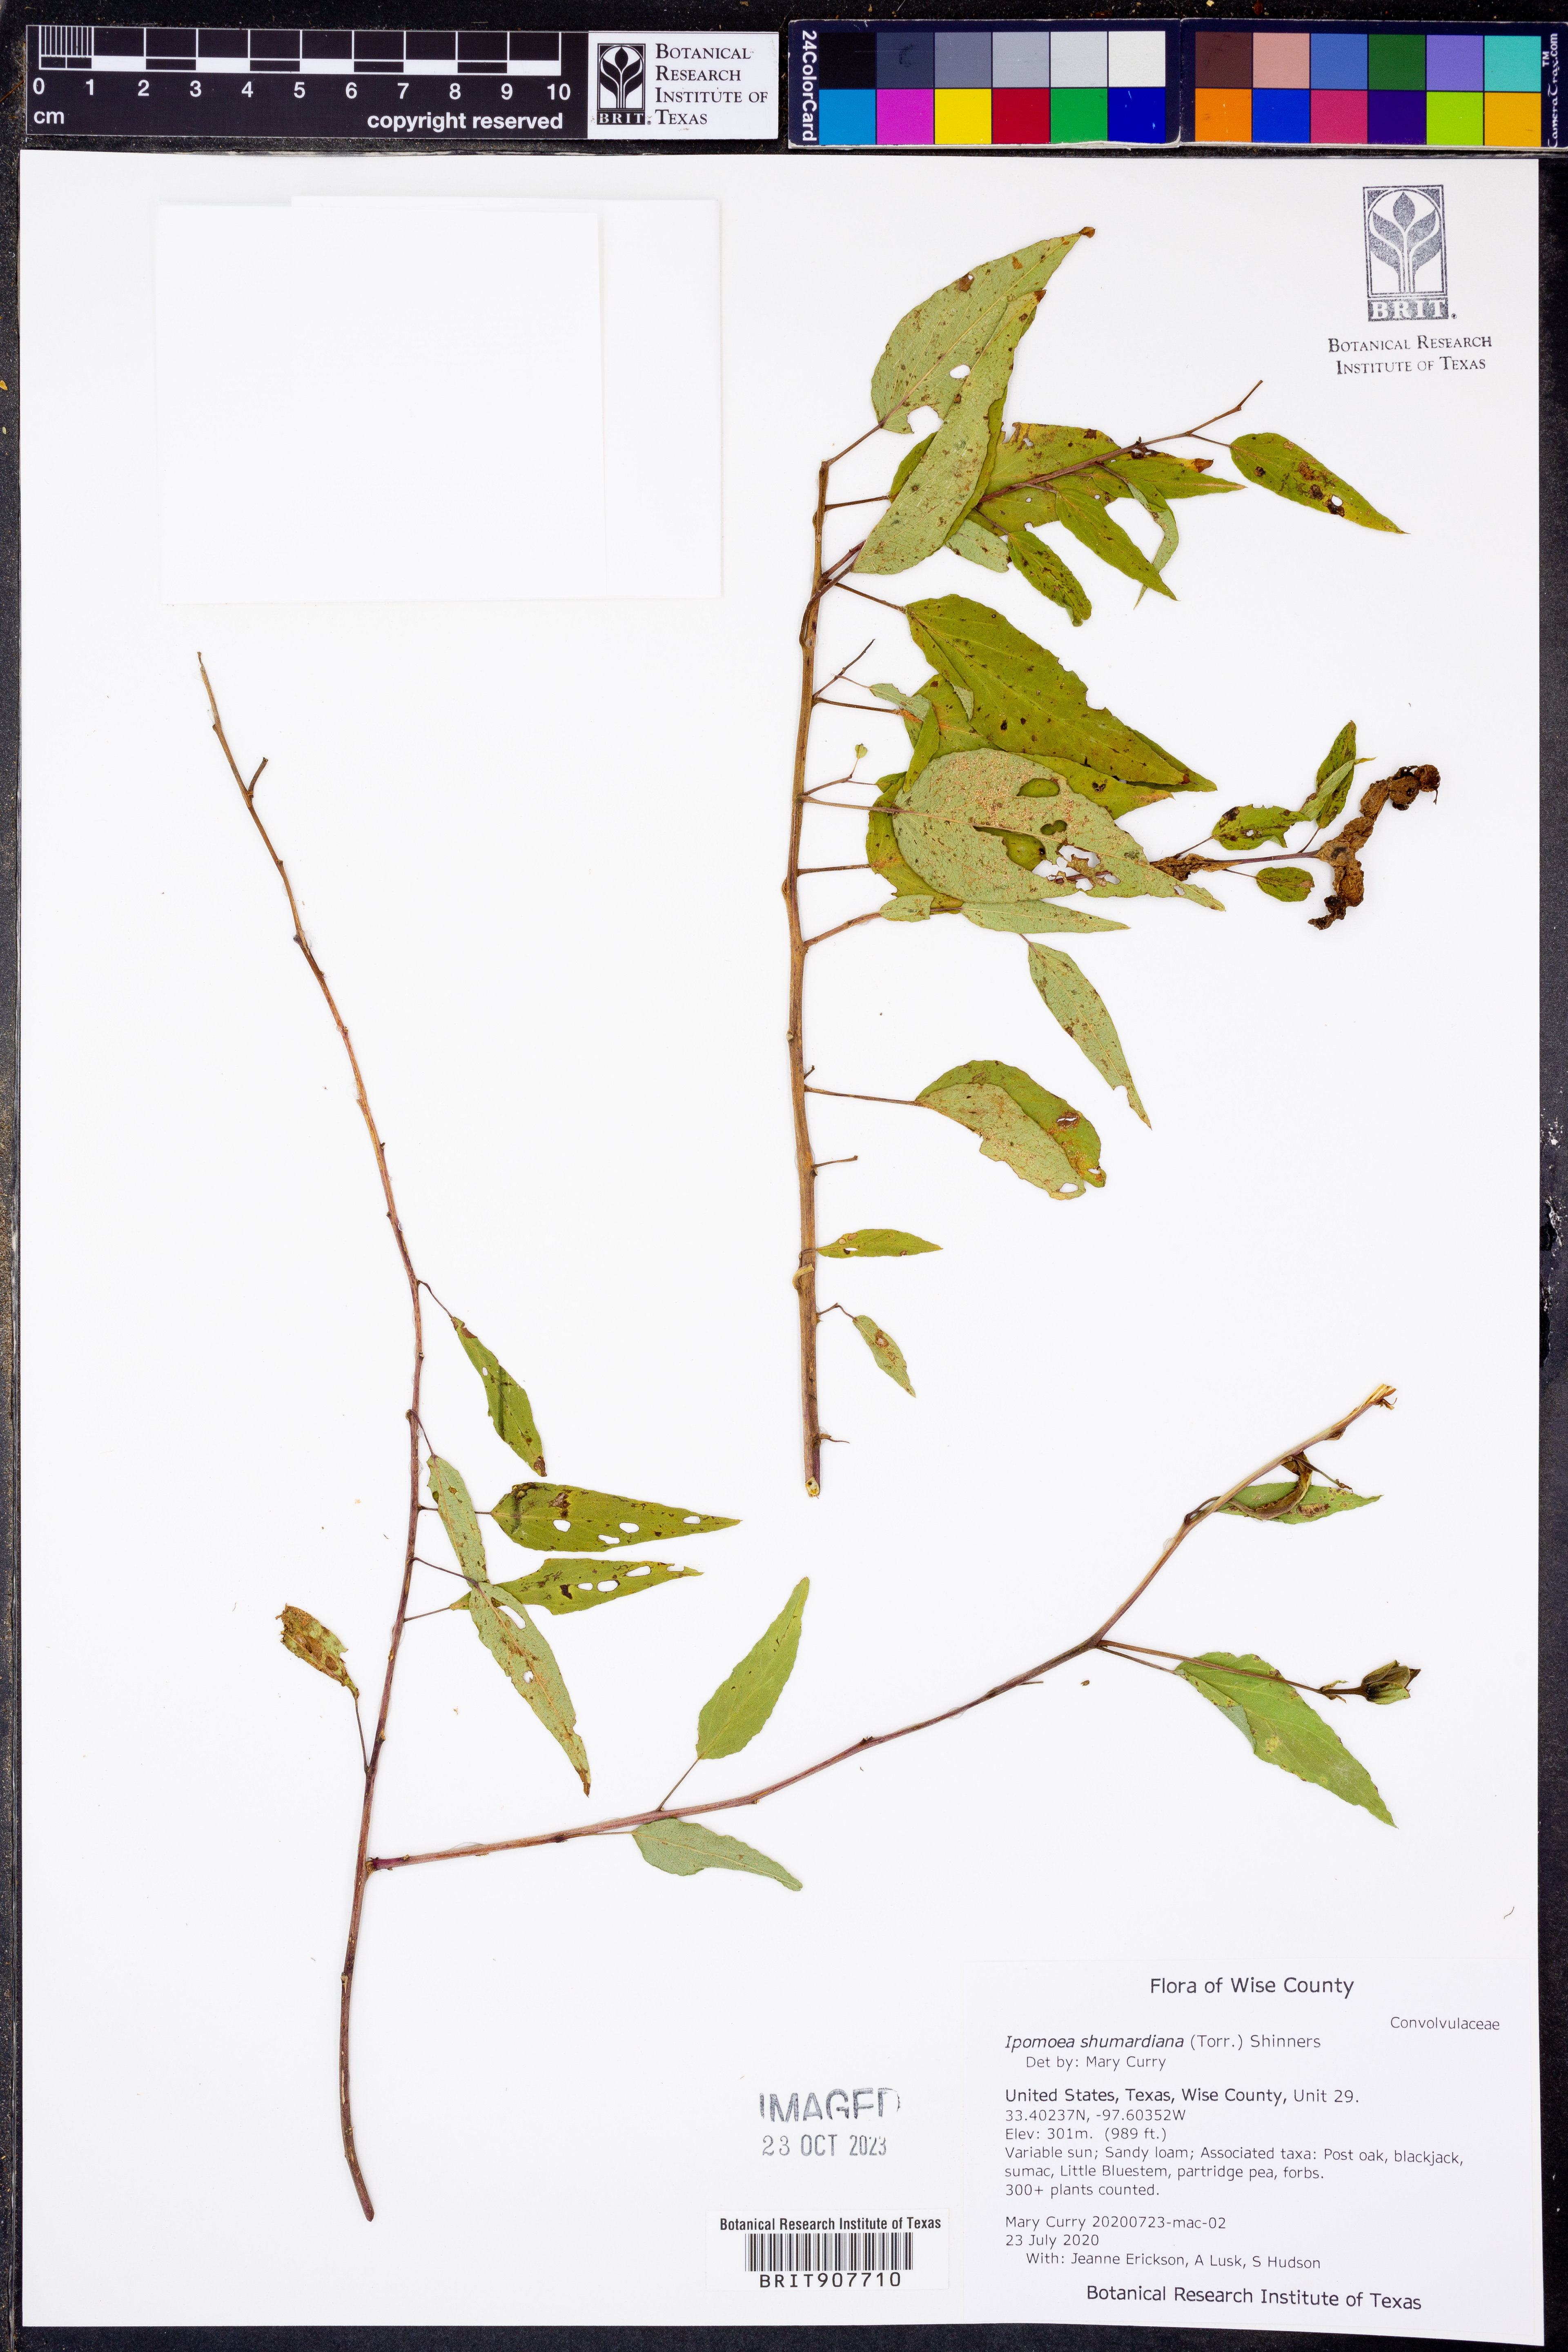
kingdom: Plantae
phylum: Tracheophyta
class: Magnoliopsida
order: Solanales
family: Convolvulaceae
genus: Ipomoea
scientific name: Ipomoea shumardiana
